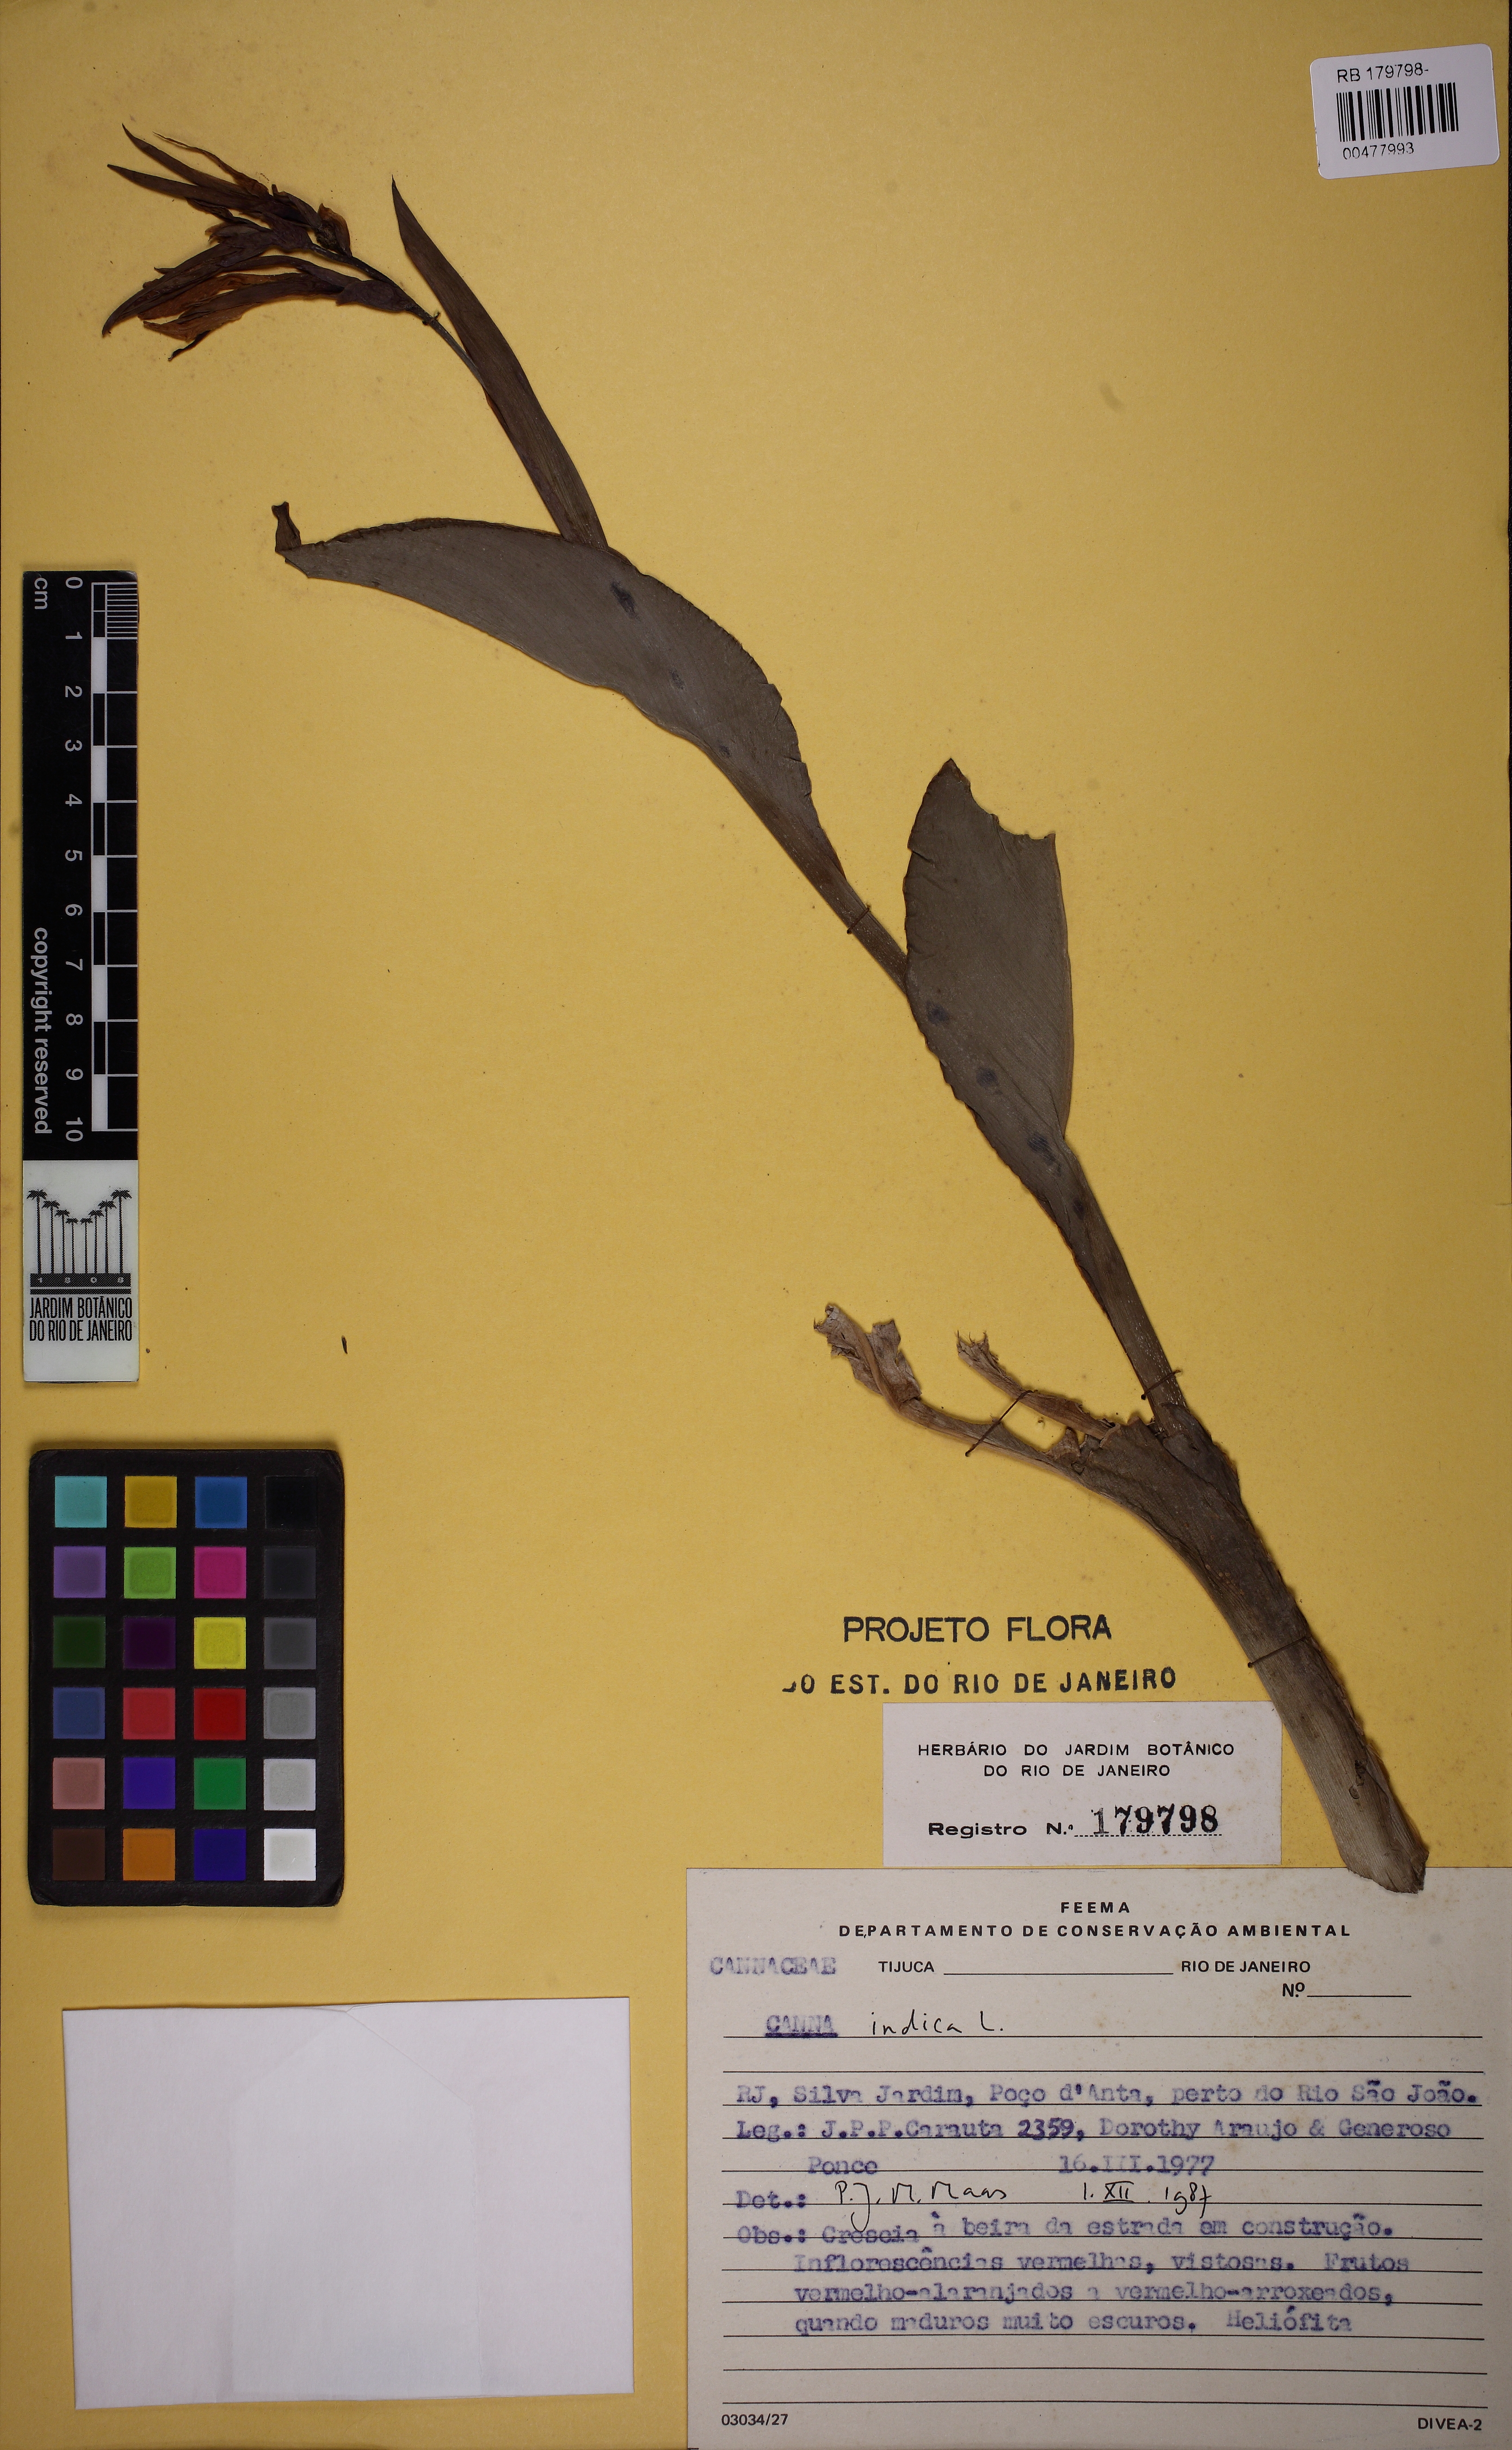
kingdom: Plantae
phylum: Tracheophyta
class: Liliopsida
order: Zingiberales
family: Cannaceae
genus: Canna
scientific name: Canna indica
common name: Indian shot
